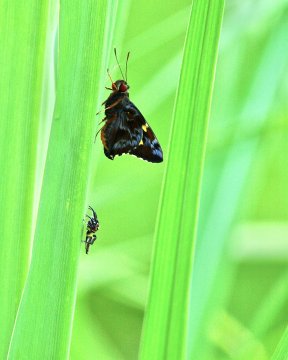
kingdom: Animalia
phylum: Arthropoda
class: Insecta
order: Lepidoptera
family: Hesperiidae
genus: Perichares
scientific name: Perichares philetes
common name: Green-backed Ruby-eye
